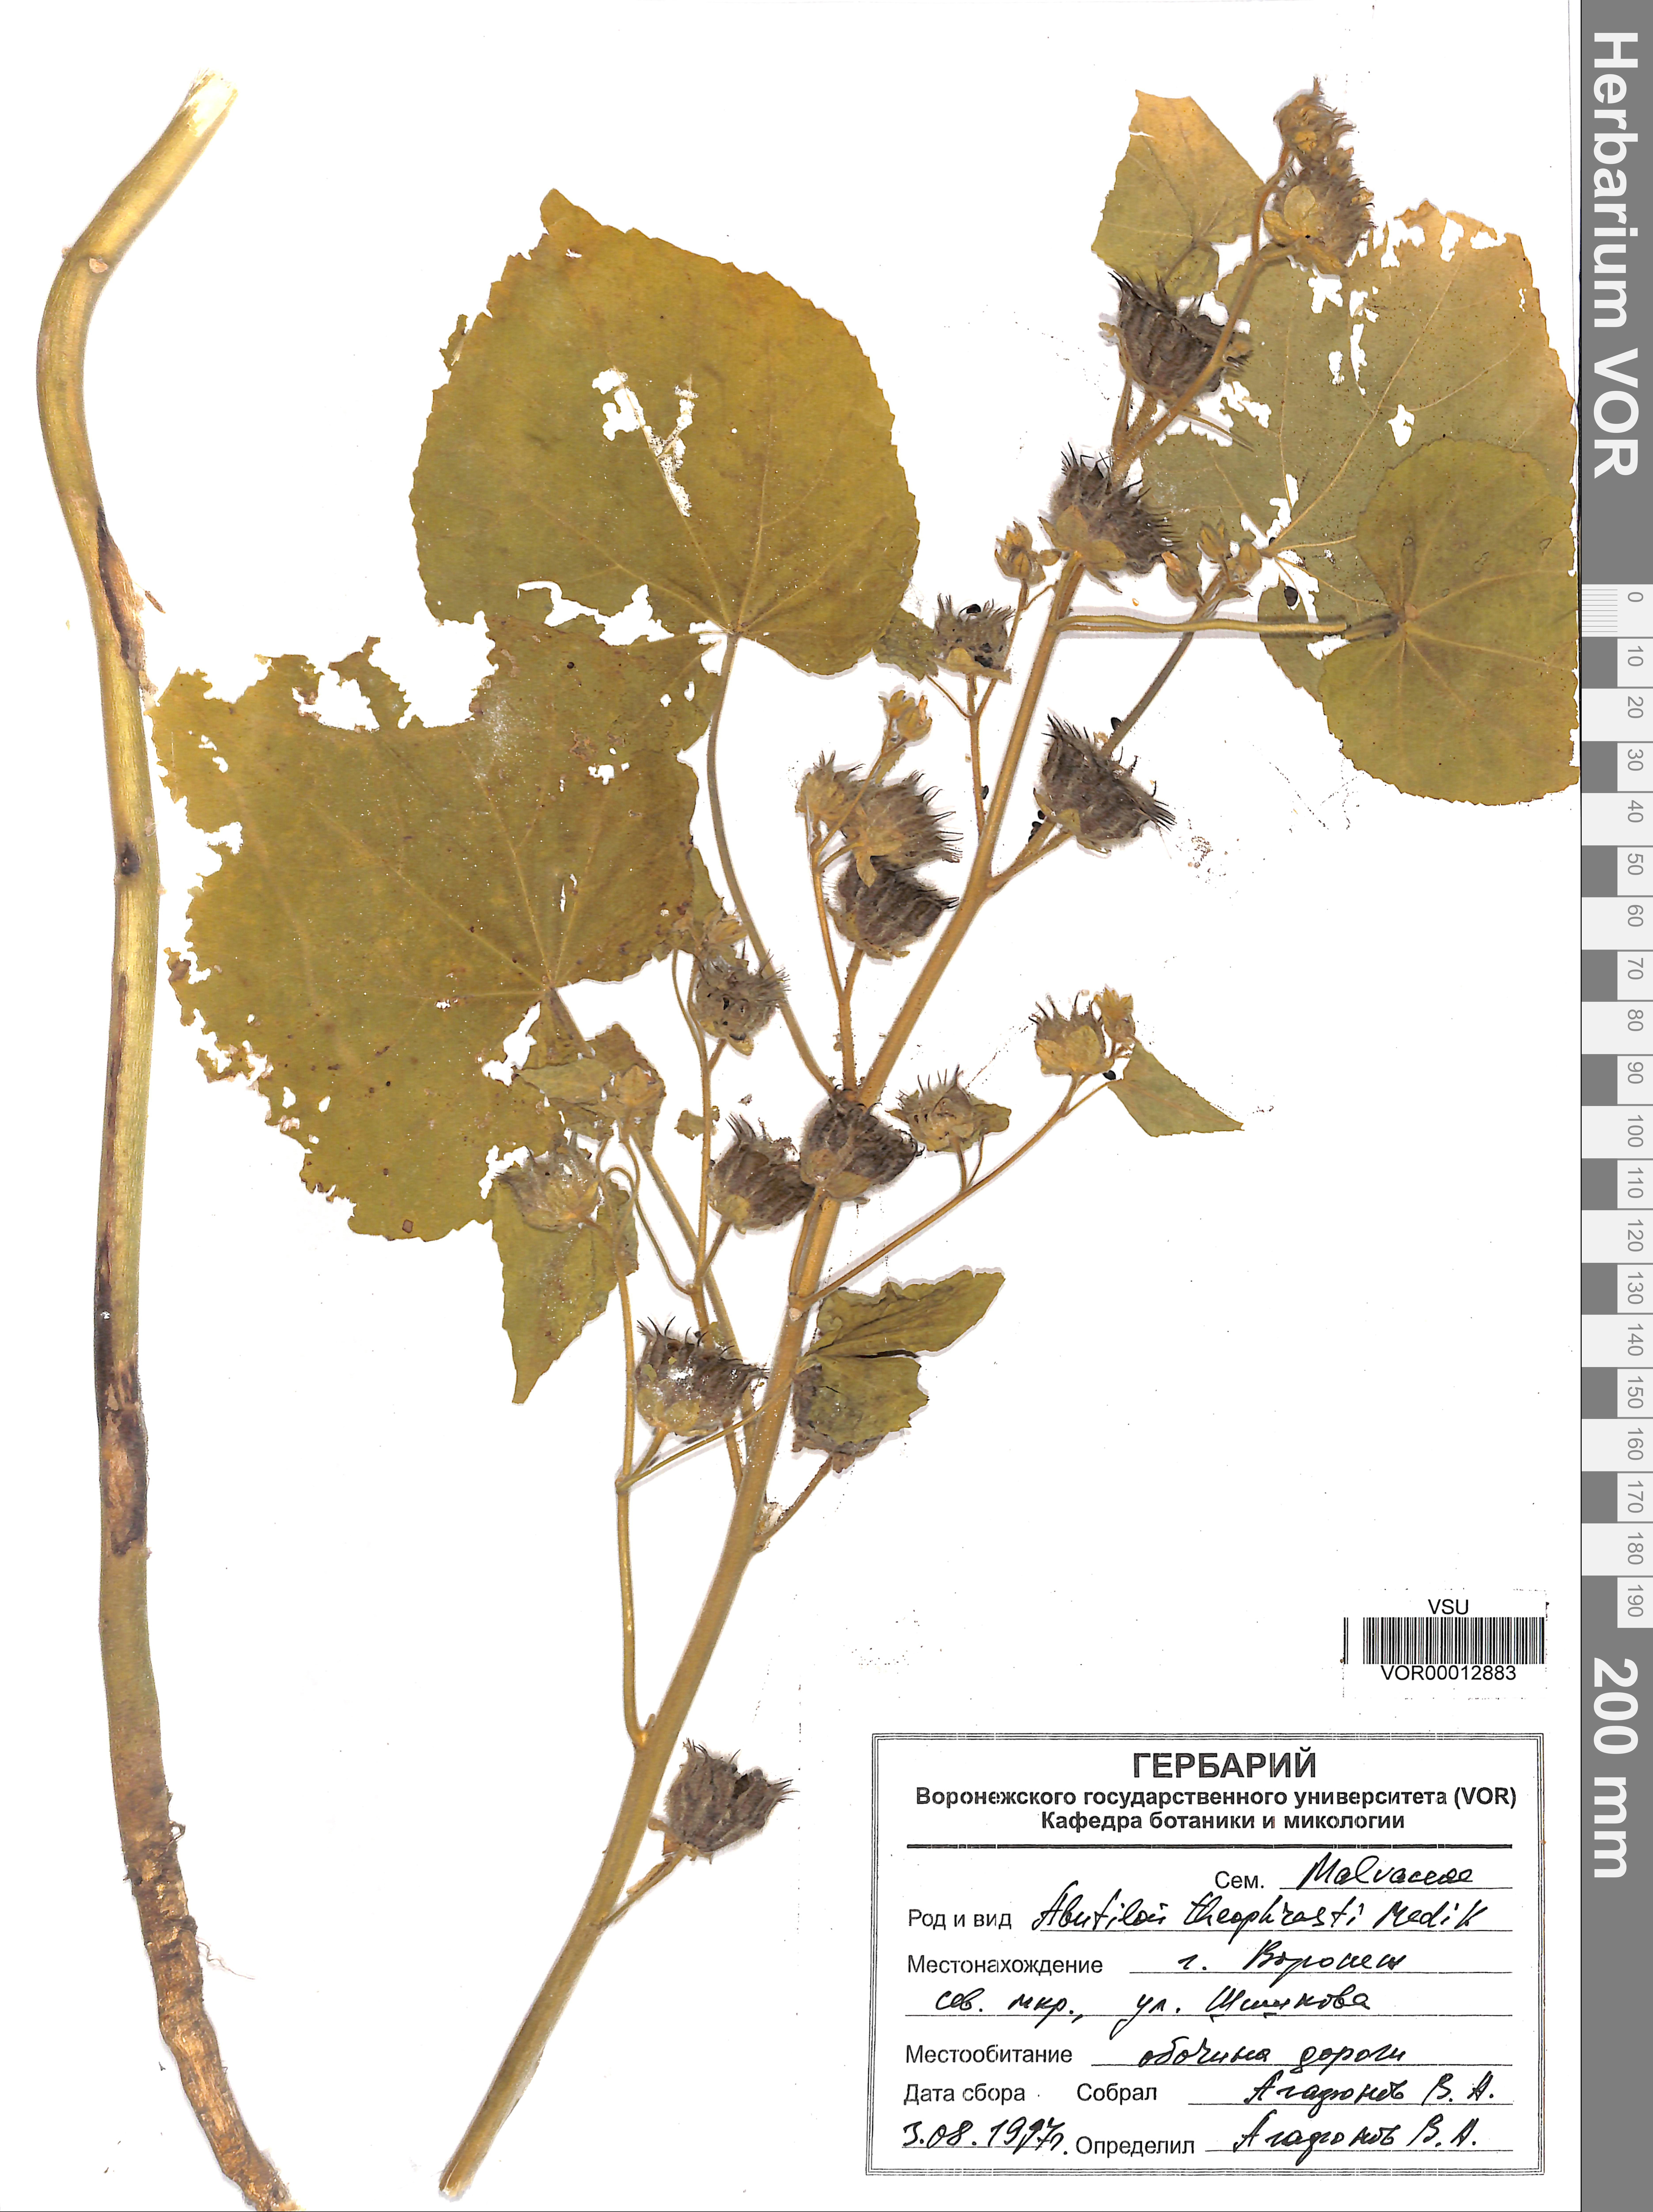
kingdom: Plantae
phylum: Tracheophyta
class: Magnoliopsida
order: Malvales
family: Malvaceae
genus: Abutilon
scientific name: Abutilon theophrasti
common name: Velvetleaf
